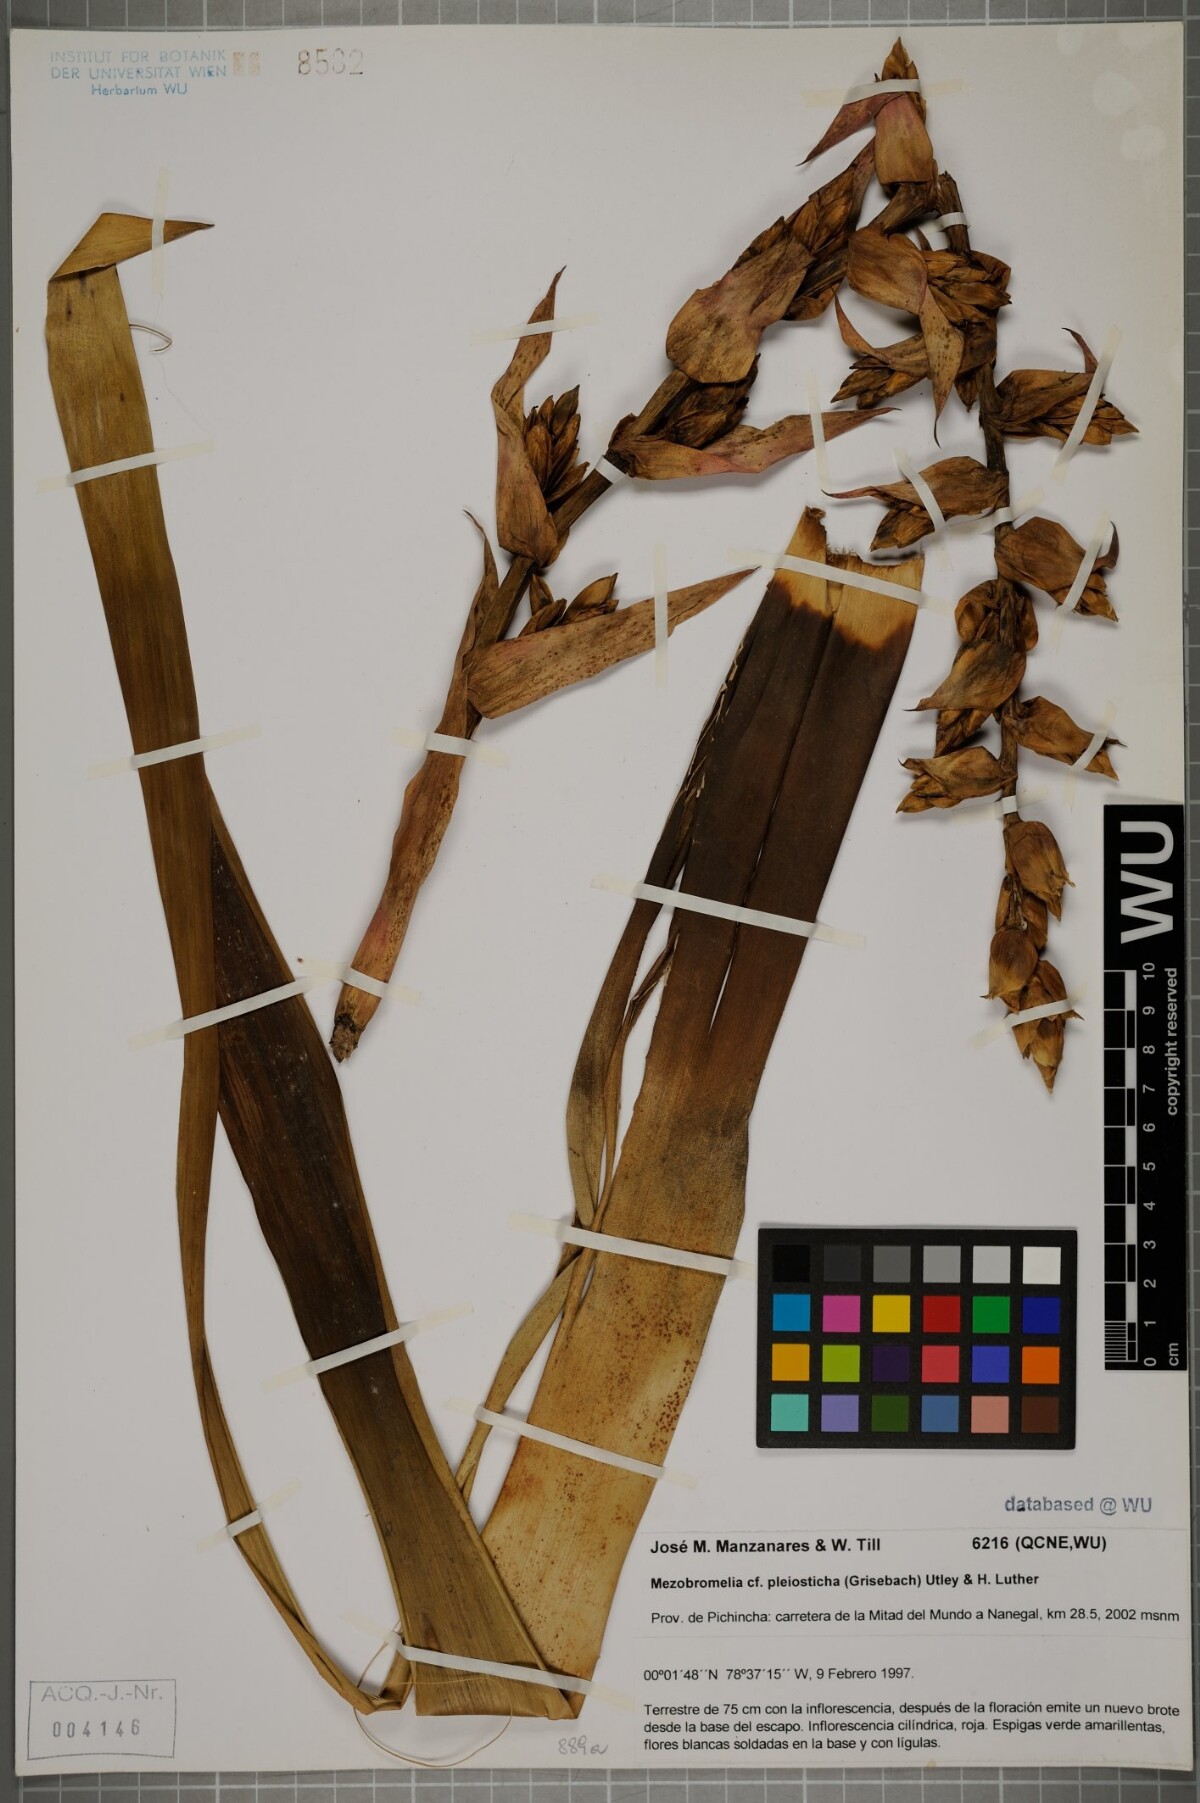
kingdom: Plantae
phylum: Tracheophyta
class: Liliopsida
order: Poales
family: Bromeliaceae
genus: Vriesea
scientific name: Vriesea pleiosticha
